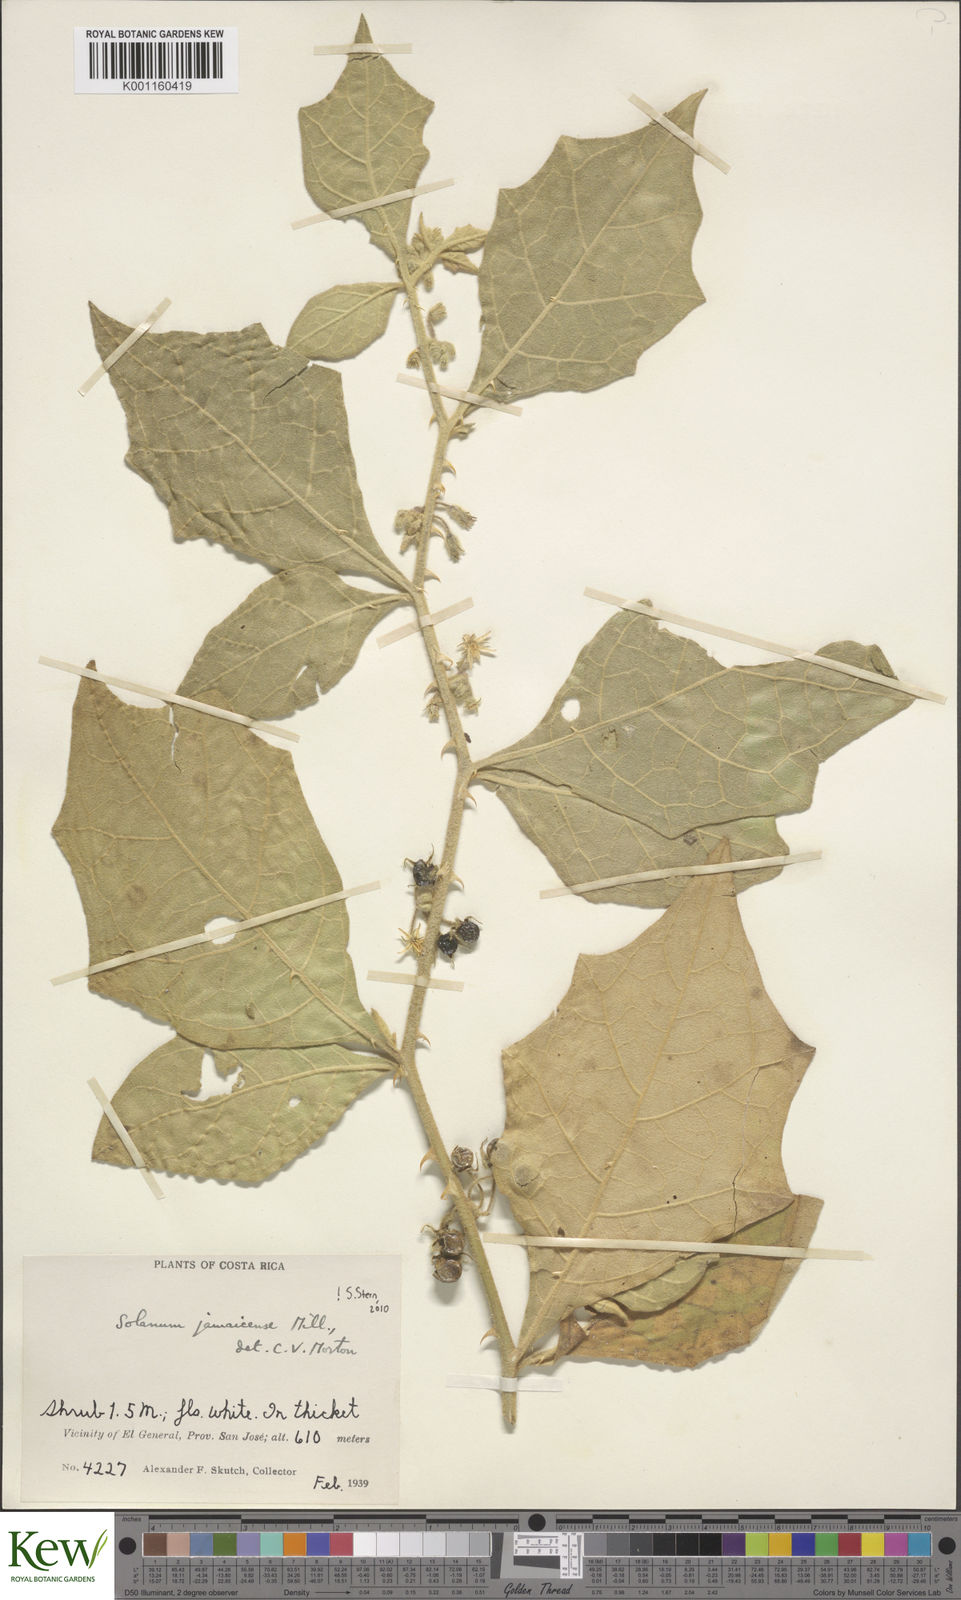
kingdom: Plantae
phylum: Tracheophyta
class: Magnoliopsida
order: Solanales
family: Solanaceae
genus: Solanum
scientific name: Solanum jamaicense
